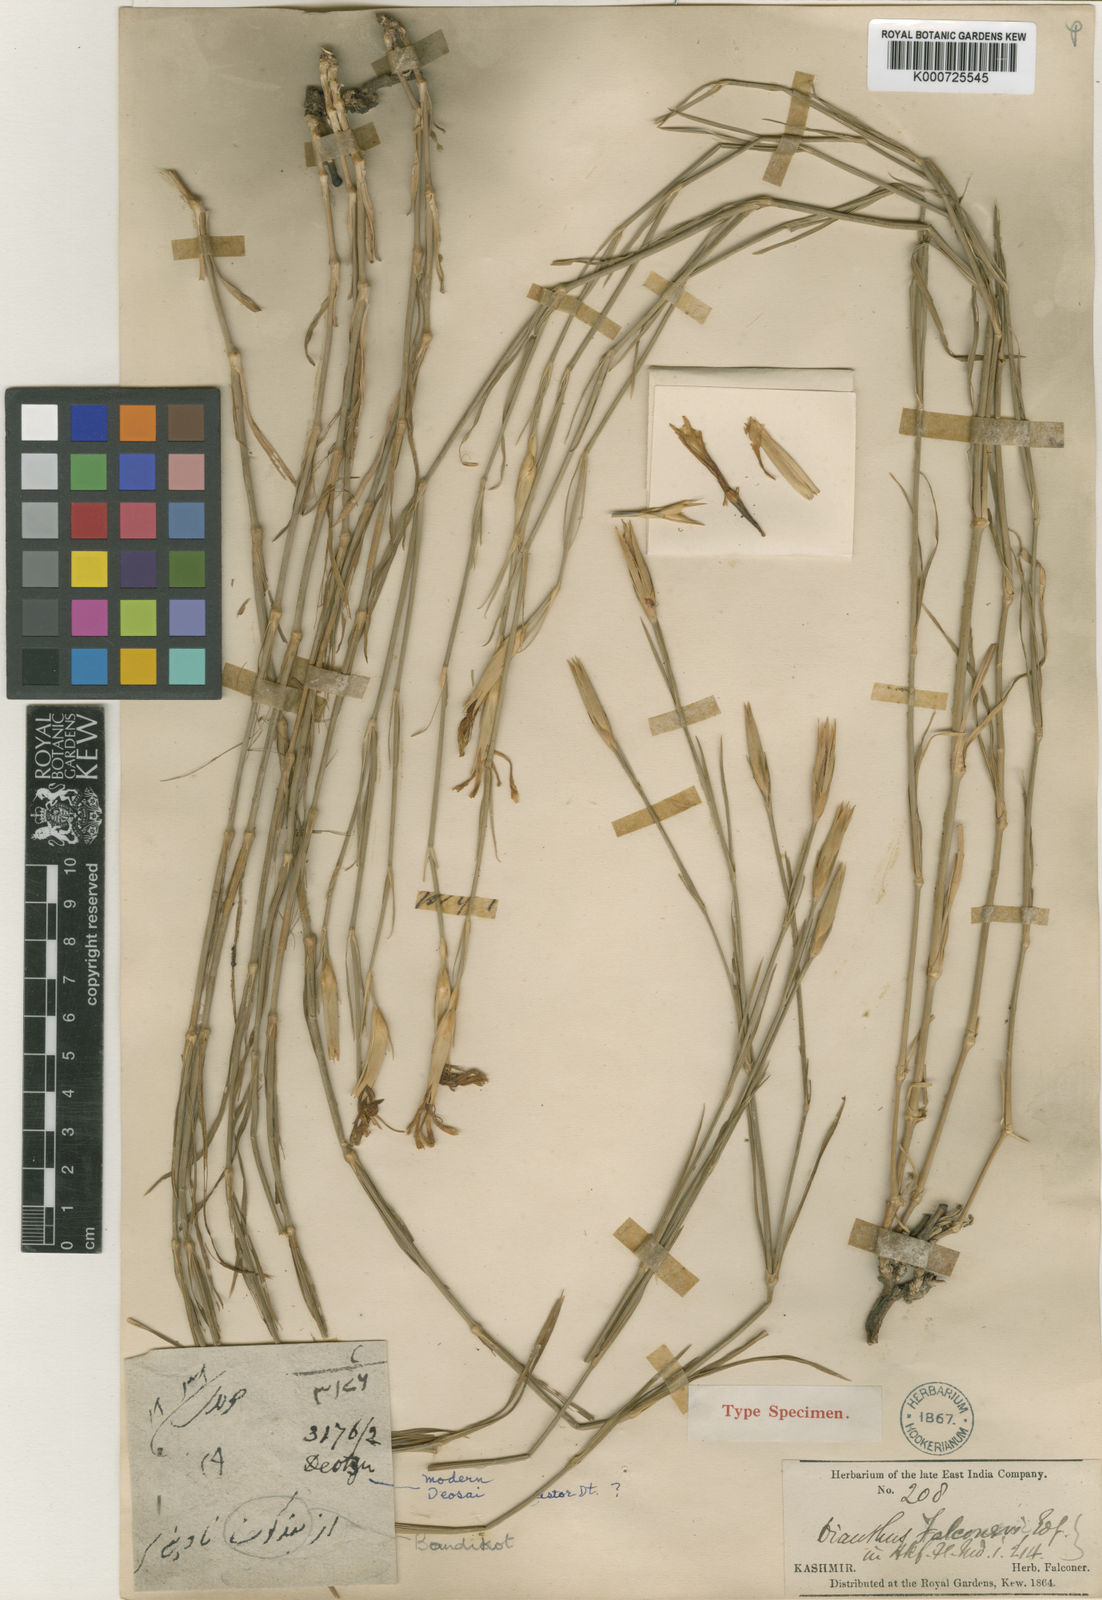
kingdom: Plantae
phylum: Tracheophyta
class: Magnoliopsida
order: Caryophyllales
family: Caryophyllaceae
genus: Dianthus
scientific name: Dianthus falconeri
